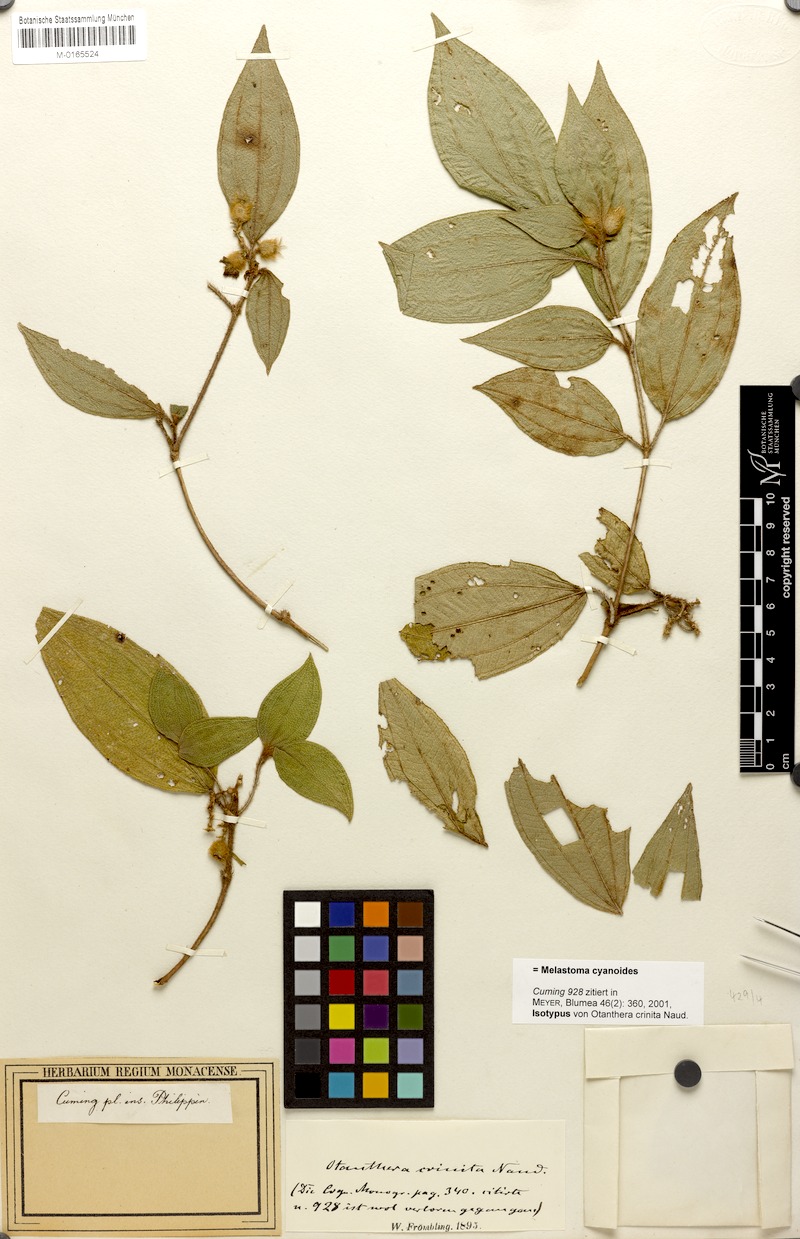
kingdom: Plantae
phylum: Tracheophyta
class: Magnoliopsida
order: Myrtales
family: Melastomataceae
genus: Melastoma
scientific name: Melastoma cyanoides
